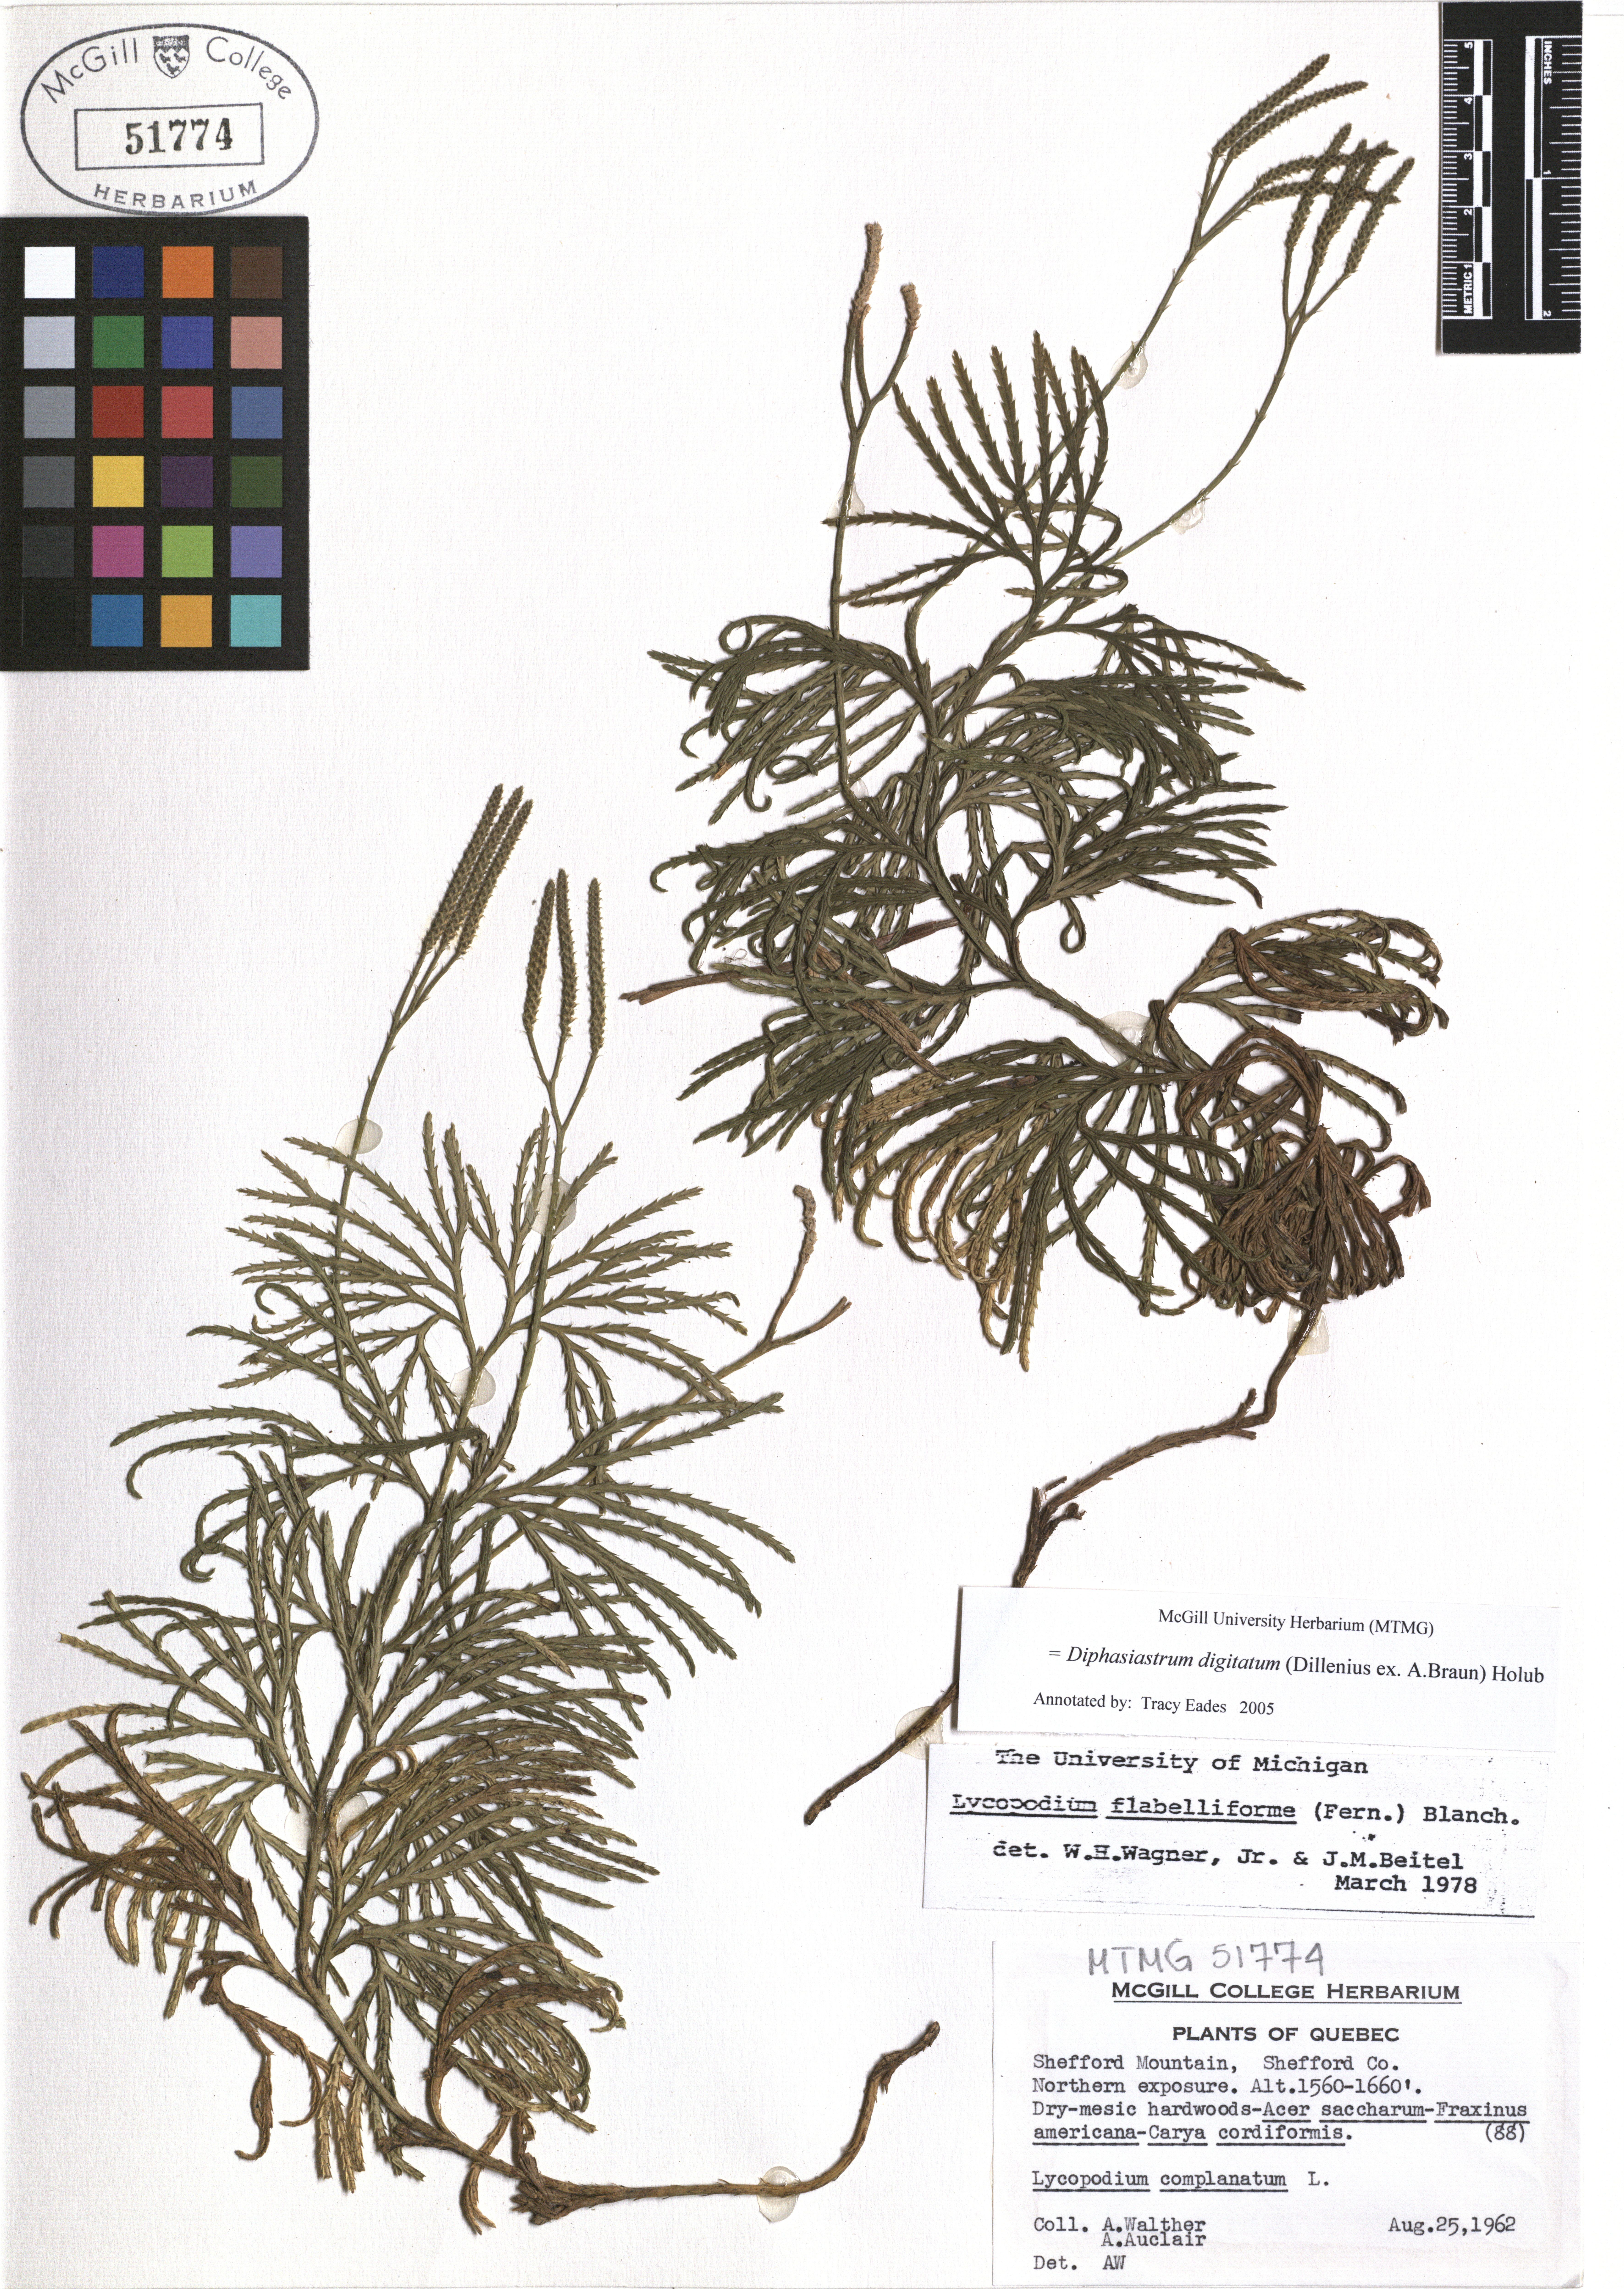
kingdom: Plantae
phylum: Tracheophyta
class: Lycopodiopsida
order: Lycopodiales
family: Lycopodiaceae
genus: Diphasiastrum
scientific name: Diphasiastrum digitatum
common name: Southern running-pine
